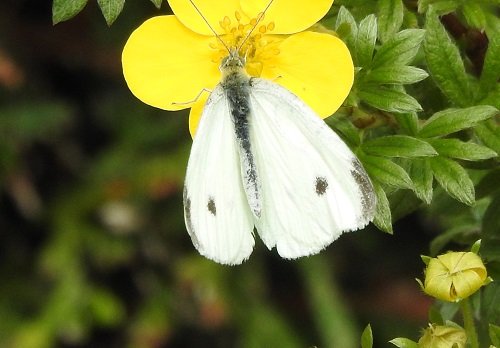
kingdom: Animalia
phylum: Arthropoda
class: Insecta
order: Lepidoptera
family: Pieridae
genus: Pieris
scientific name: Pieris rapae
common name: Cabbage White
